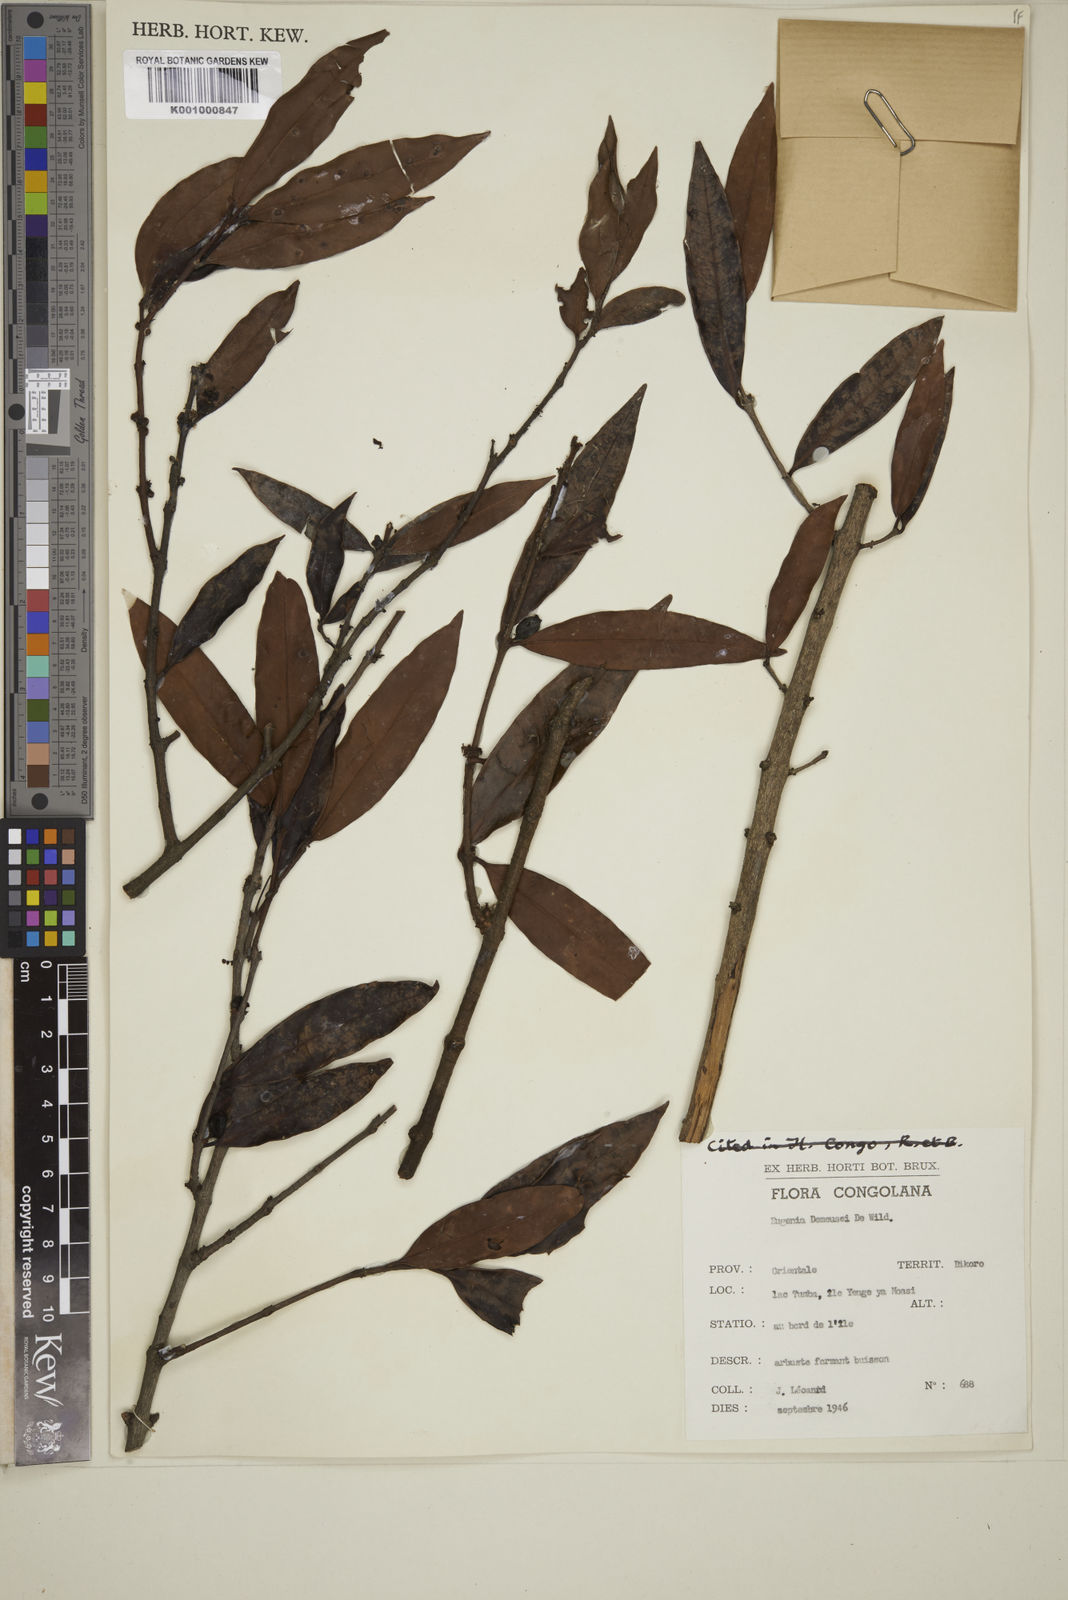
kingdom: Plantae
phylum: Tracheophyta
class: Magnoliopsida
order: Myrtales
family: Myrtaceae
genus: Eugenia
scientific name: Eugenia demeusei
